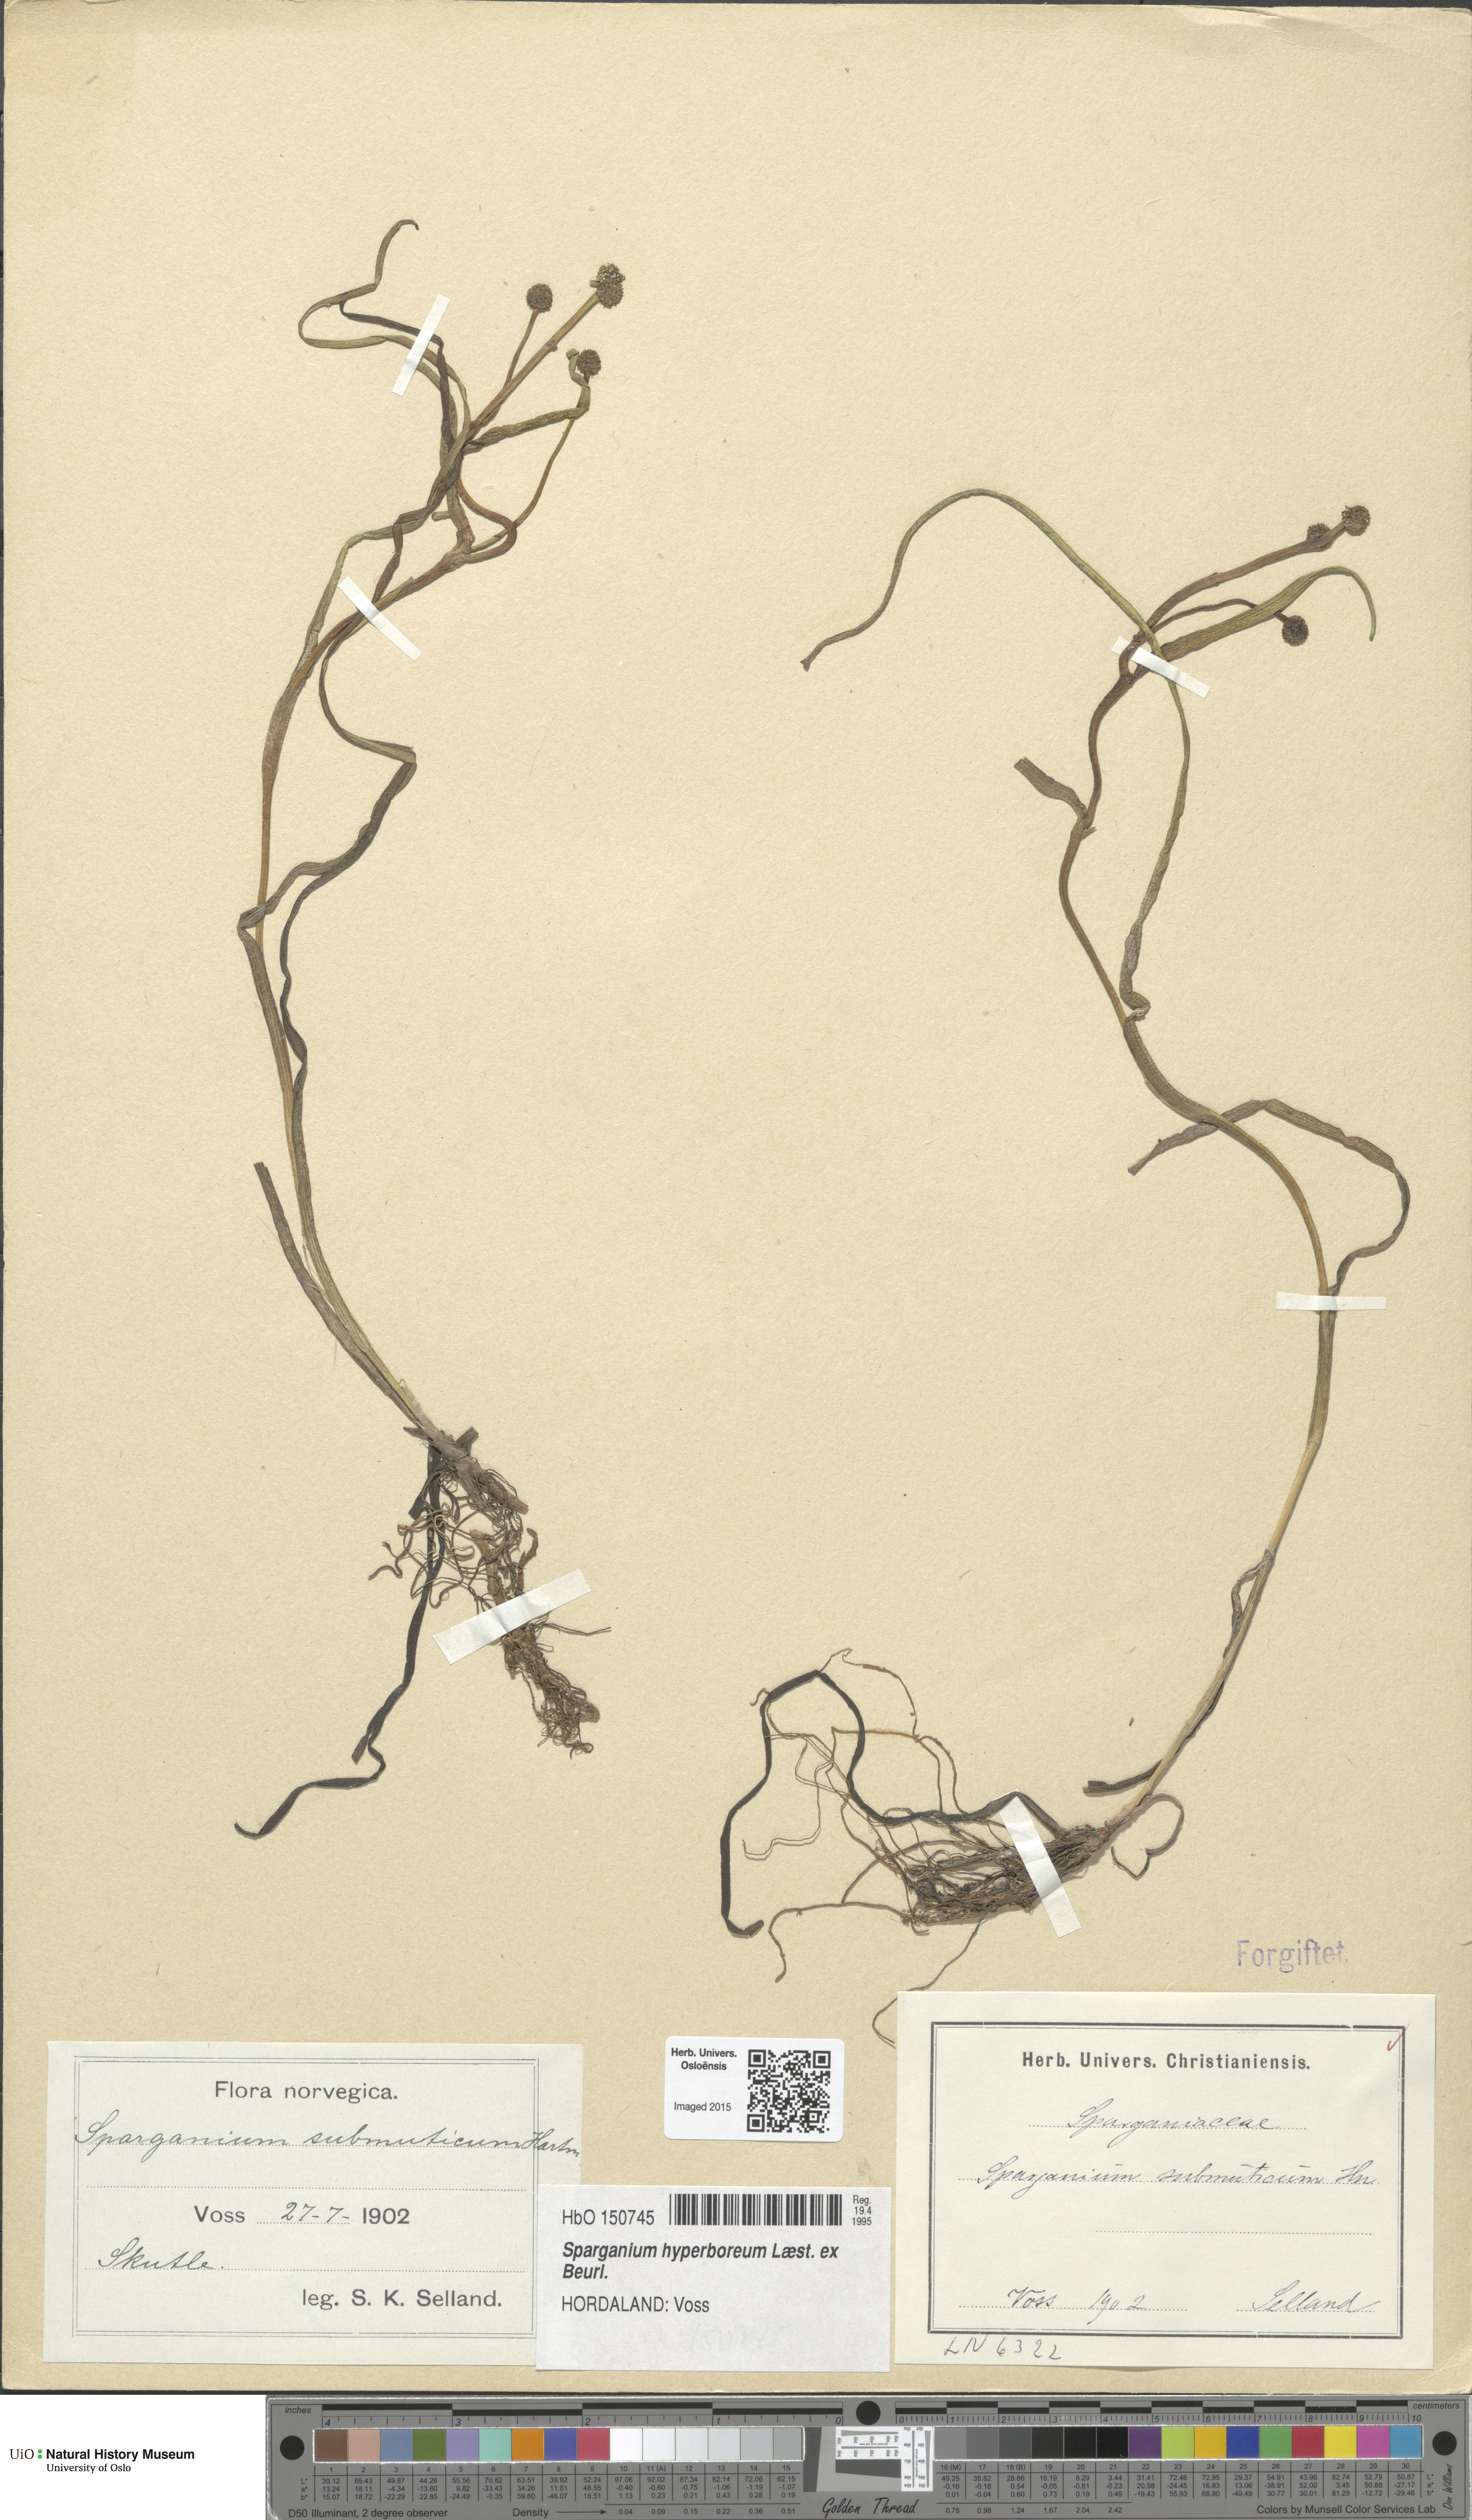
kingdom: Plantae
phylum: Tracheophyta
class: Liliopsida
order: Poales
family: Typhaceae
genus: Sparganium
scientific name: Sparganium hyperboreum
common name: Arctic burreed
